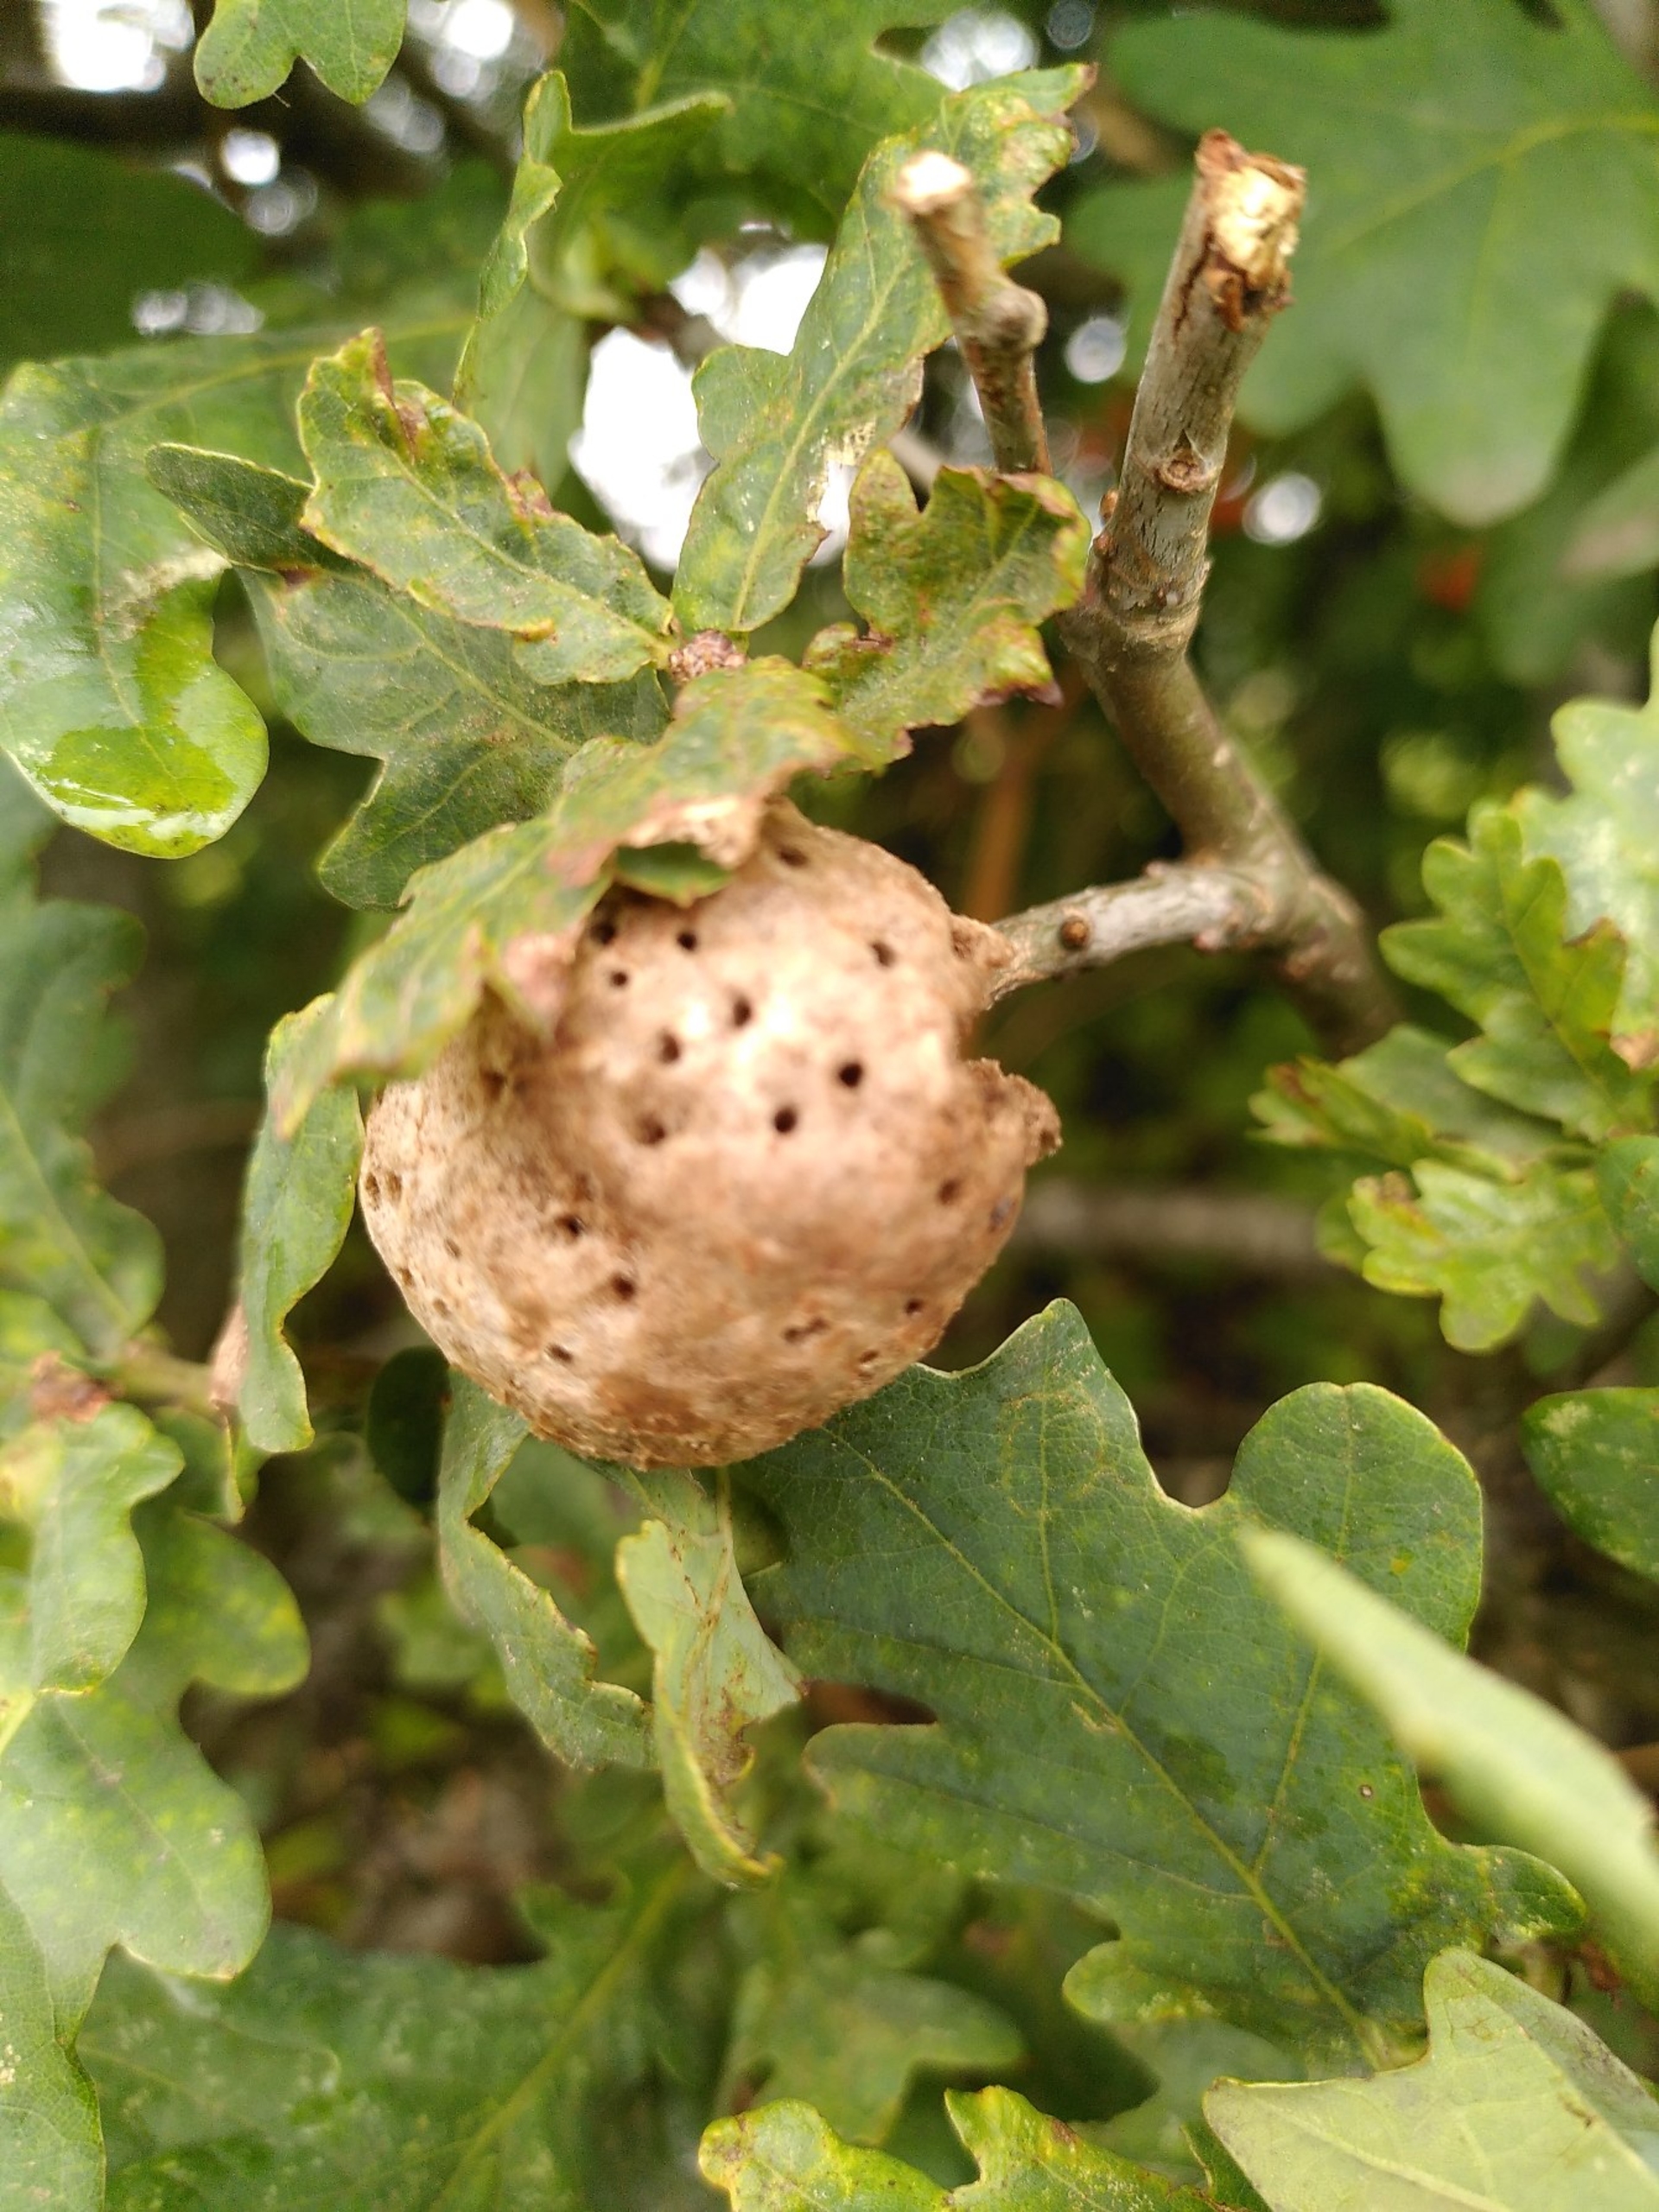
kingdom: Animalia
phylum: Arthropoda
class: Insecta
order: Hymenoptera
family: Cynipidae
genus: Biorhiza
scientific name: Biorhiza pallida
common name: Ege-kartoffelgalhveps
